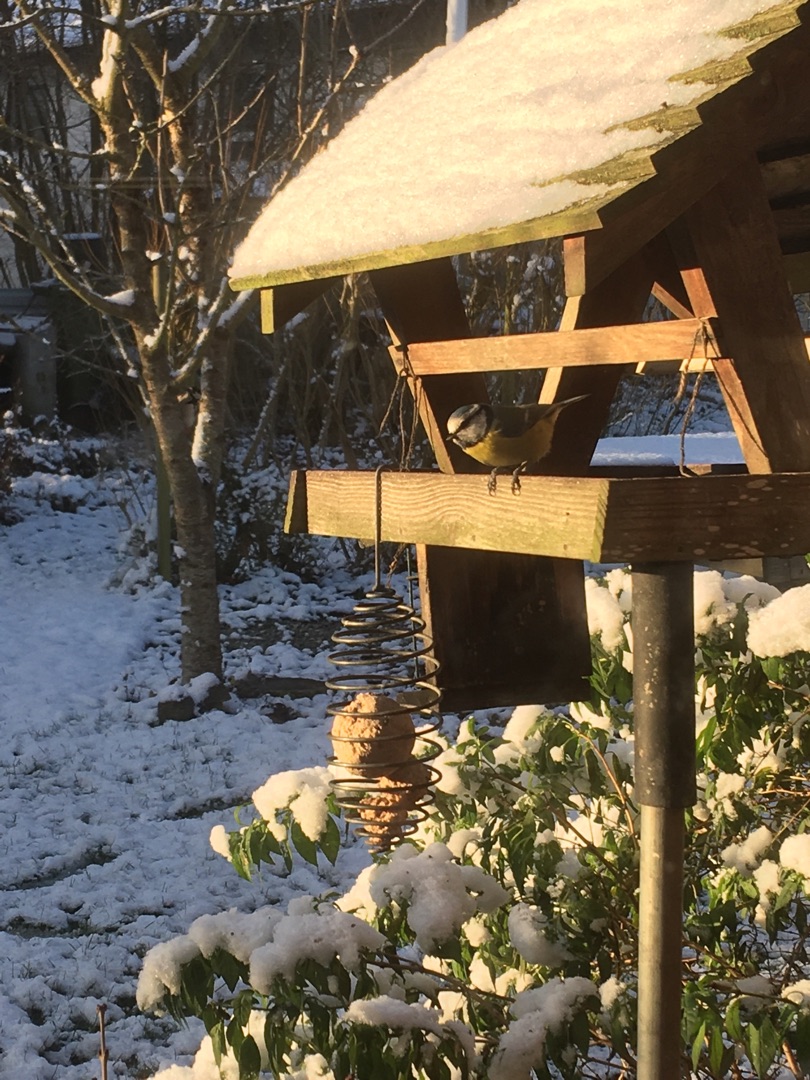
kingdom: Animalia
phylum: Chordata
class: Aves
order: Passeriformes
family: Paridae
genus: Cyanistes
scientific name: Cyanistes caeruleus
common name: Blåmejse
